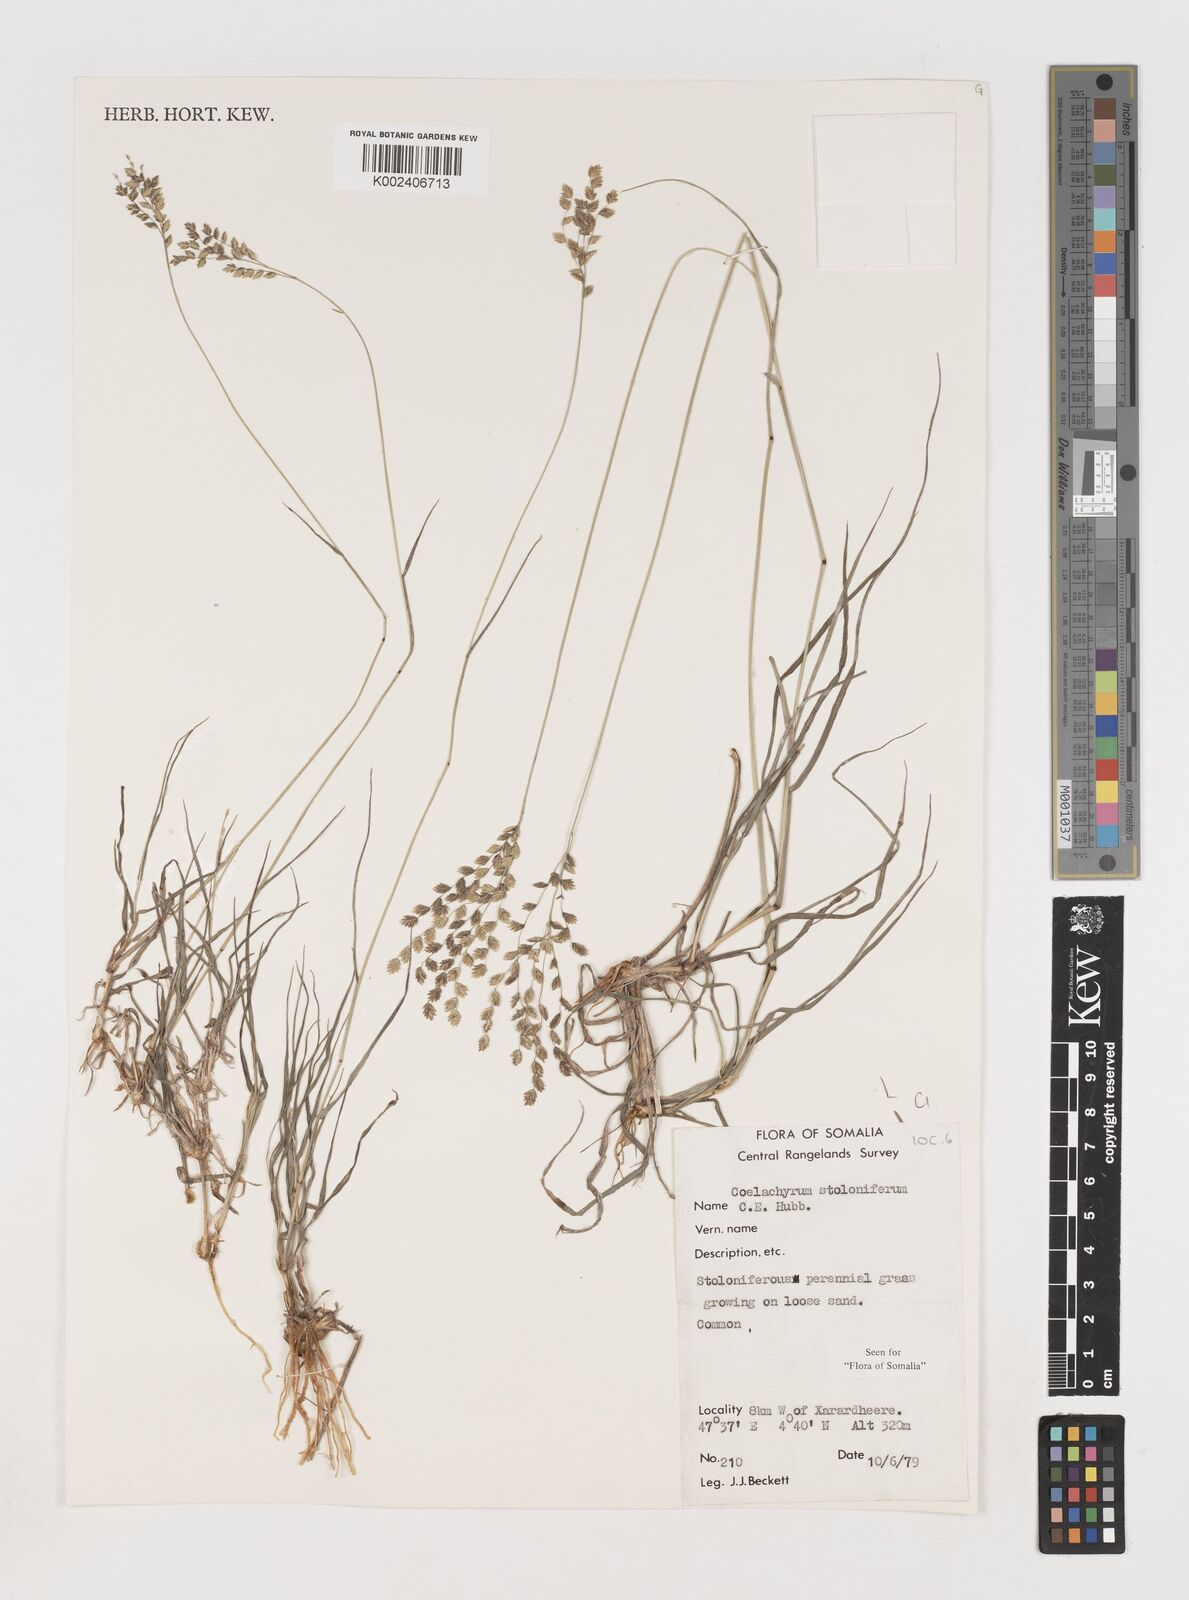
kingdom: Plantae
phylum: Tracheophyta
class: Liliopsida
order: Poales
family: Poaceae
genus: Coelachyrum
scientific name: Coelachyrum piercei
